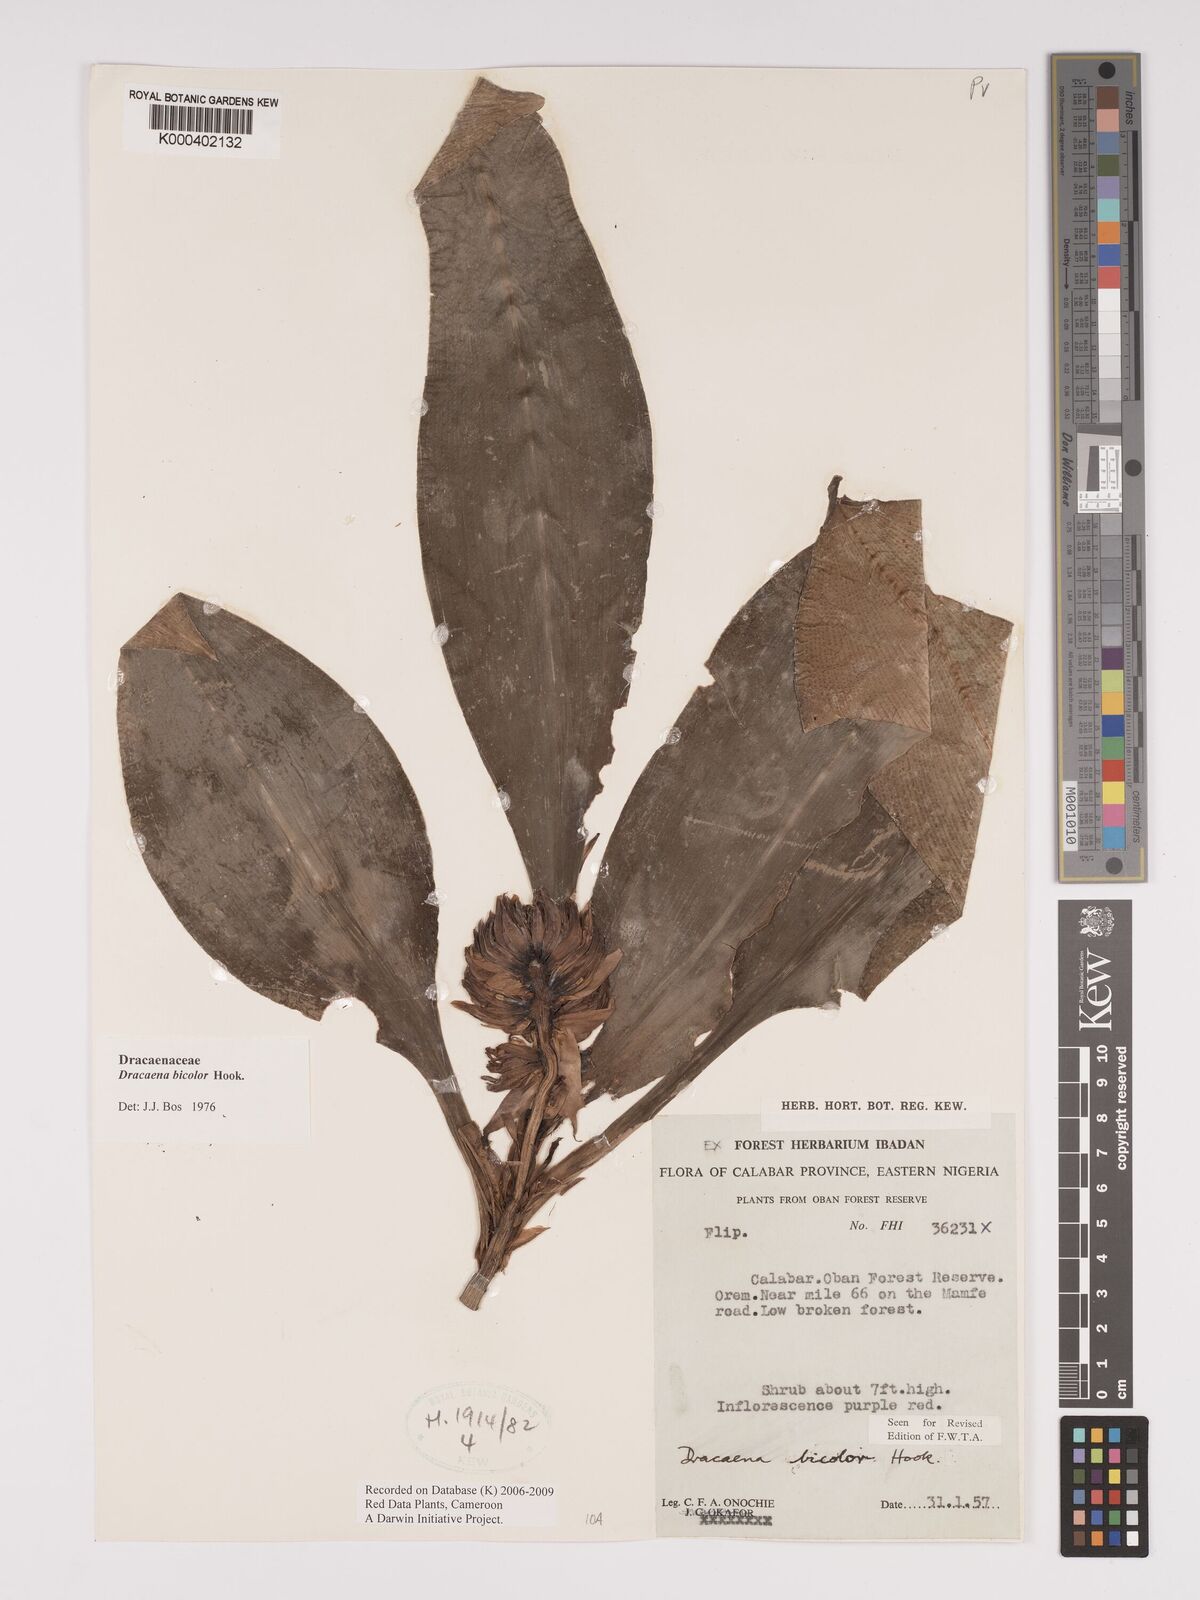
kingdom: Plantae
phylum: Tracheophyta
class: Liliopsida
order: Asparagales
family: Asparagaceae
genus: Dracaena
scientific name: Dracaena bicolor
